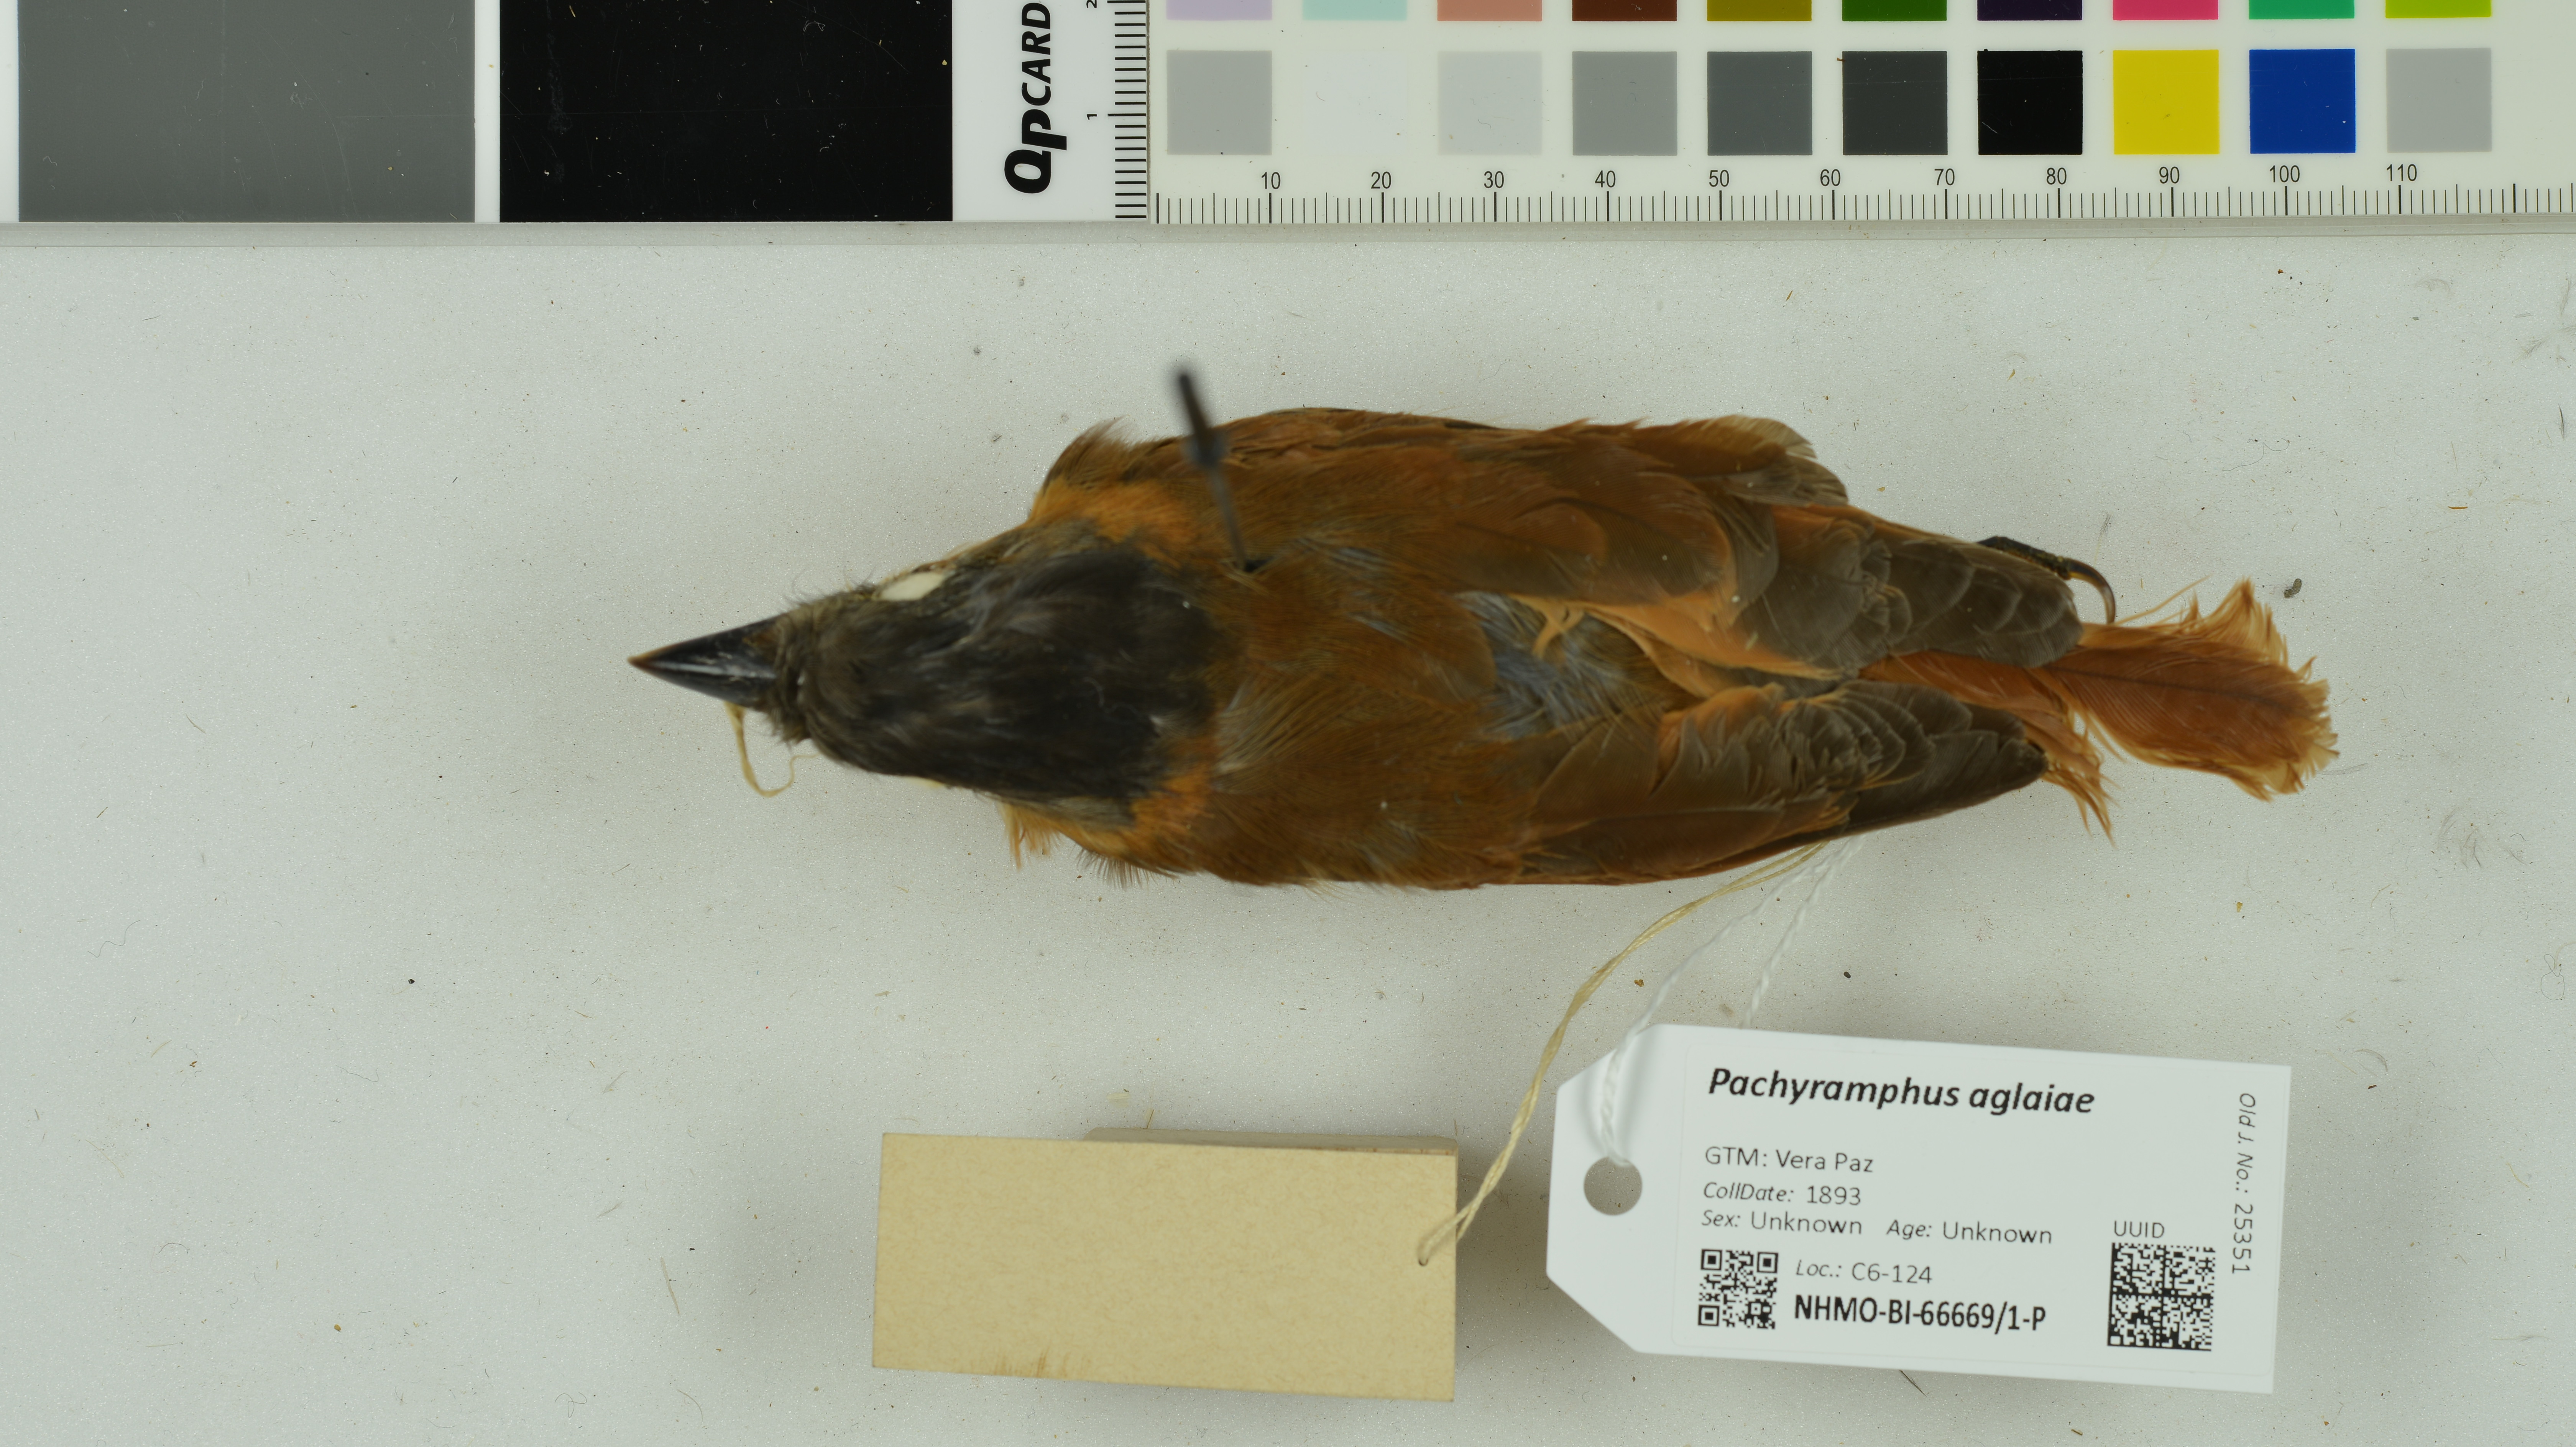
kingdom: Animalia
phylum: Chordata
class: Aves
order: Passeriformes
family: Cotingidae
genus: Pachyramphus
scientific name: Pachyramphus aglaiae
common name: Rose-throated becard
